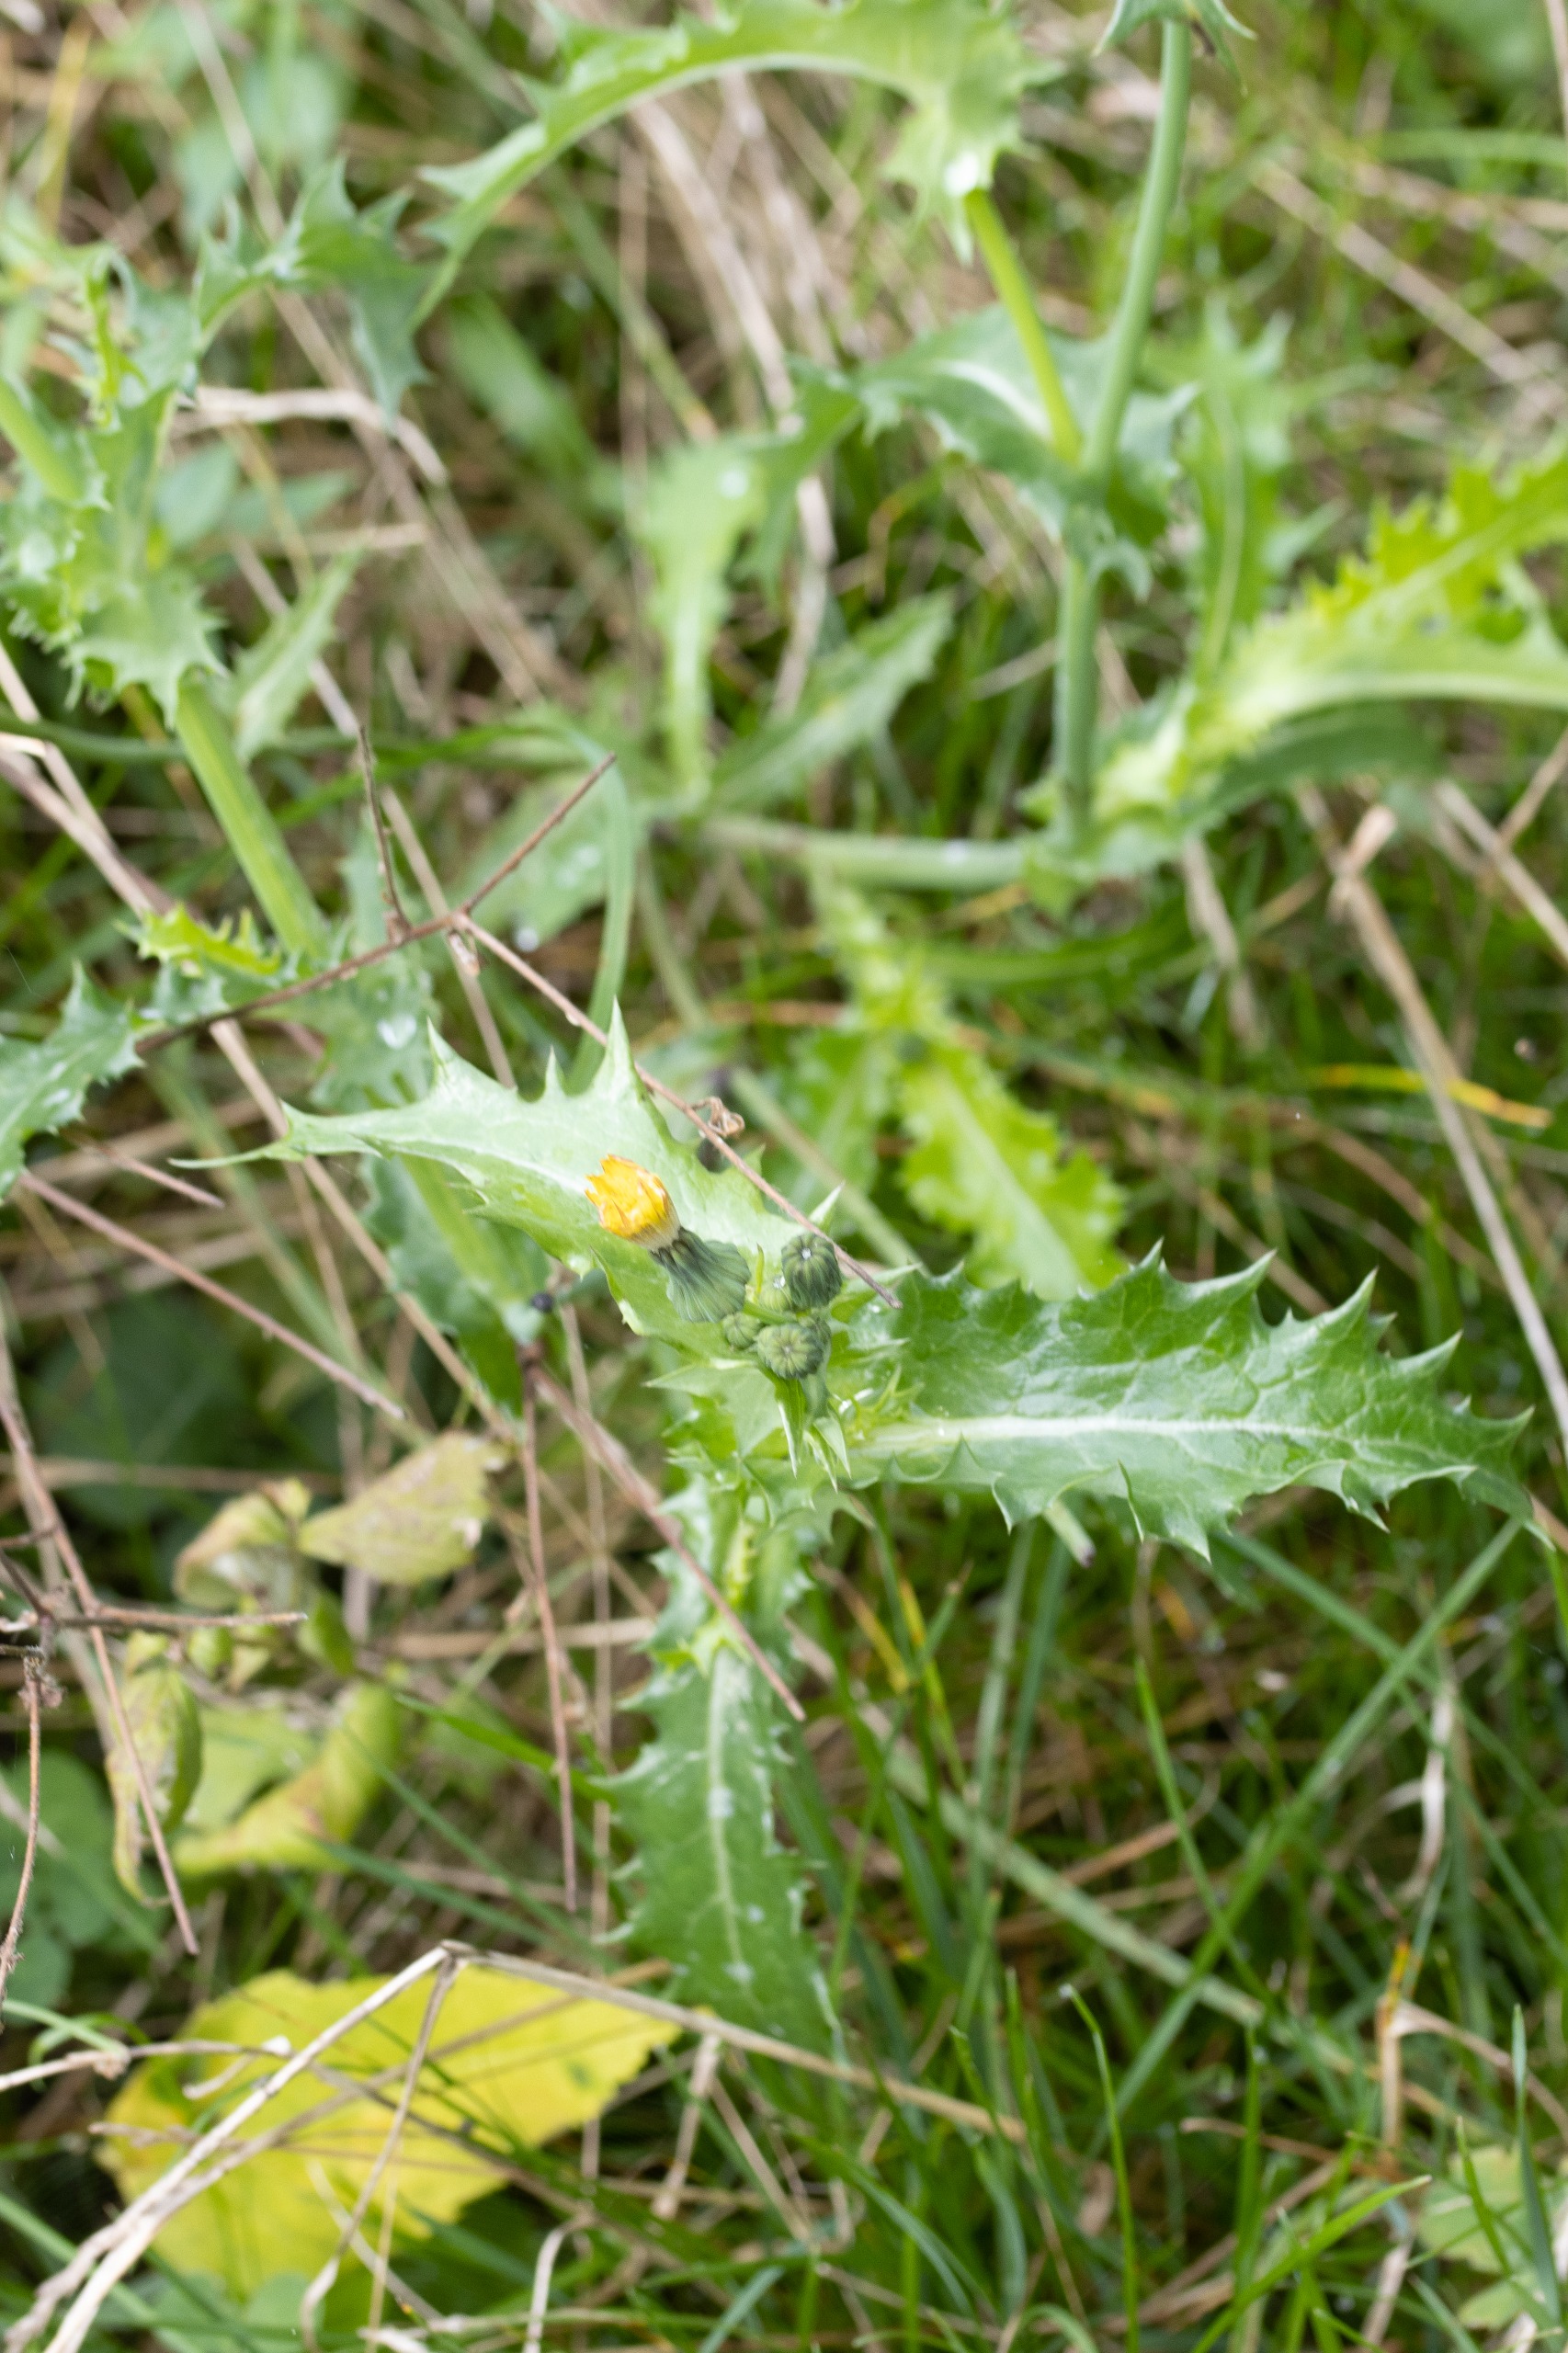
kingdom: Plantae
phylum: Tracheophyta
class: Magnoliopsida
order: Asterales
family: Asteraceae
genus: Sonchus
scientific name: Sonchus asper
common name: Ru svinemælk
